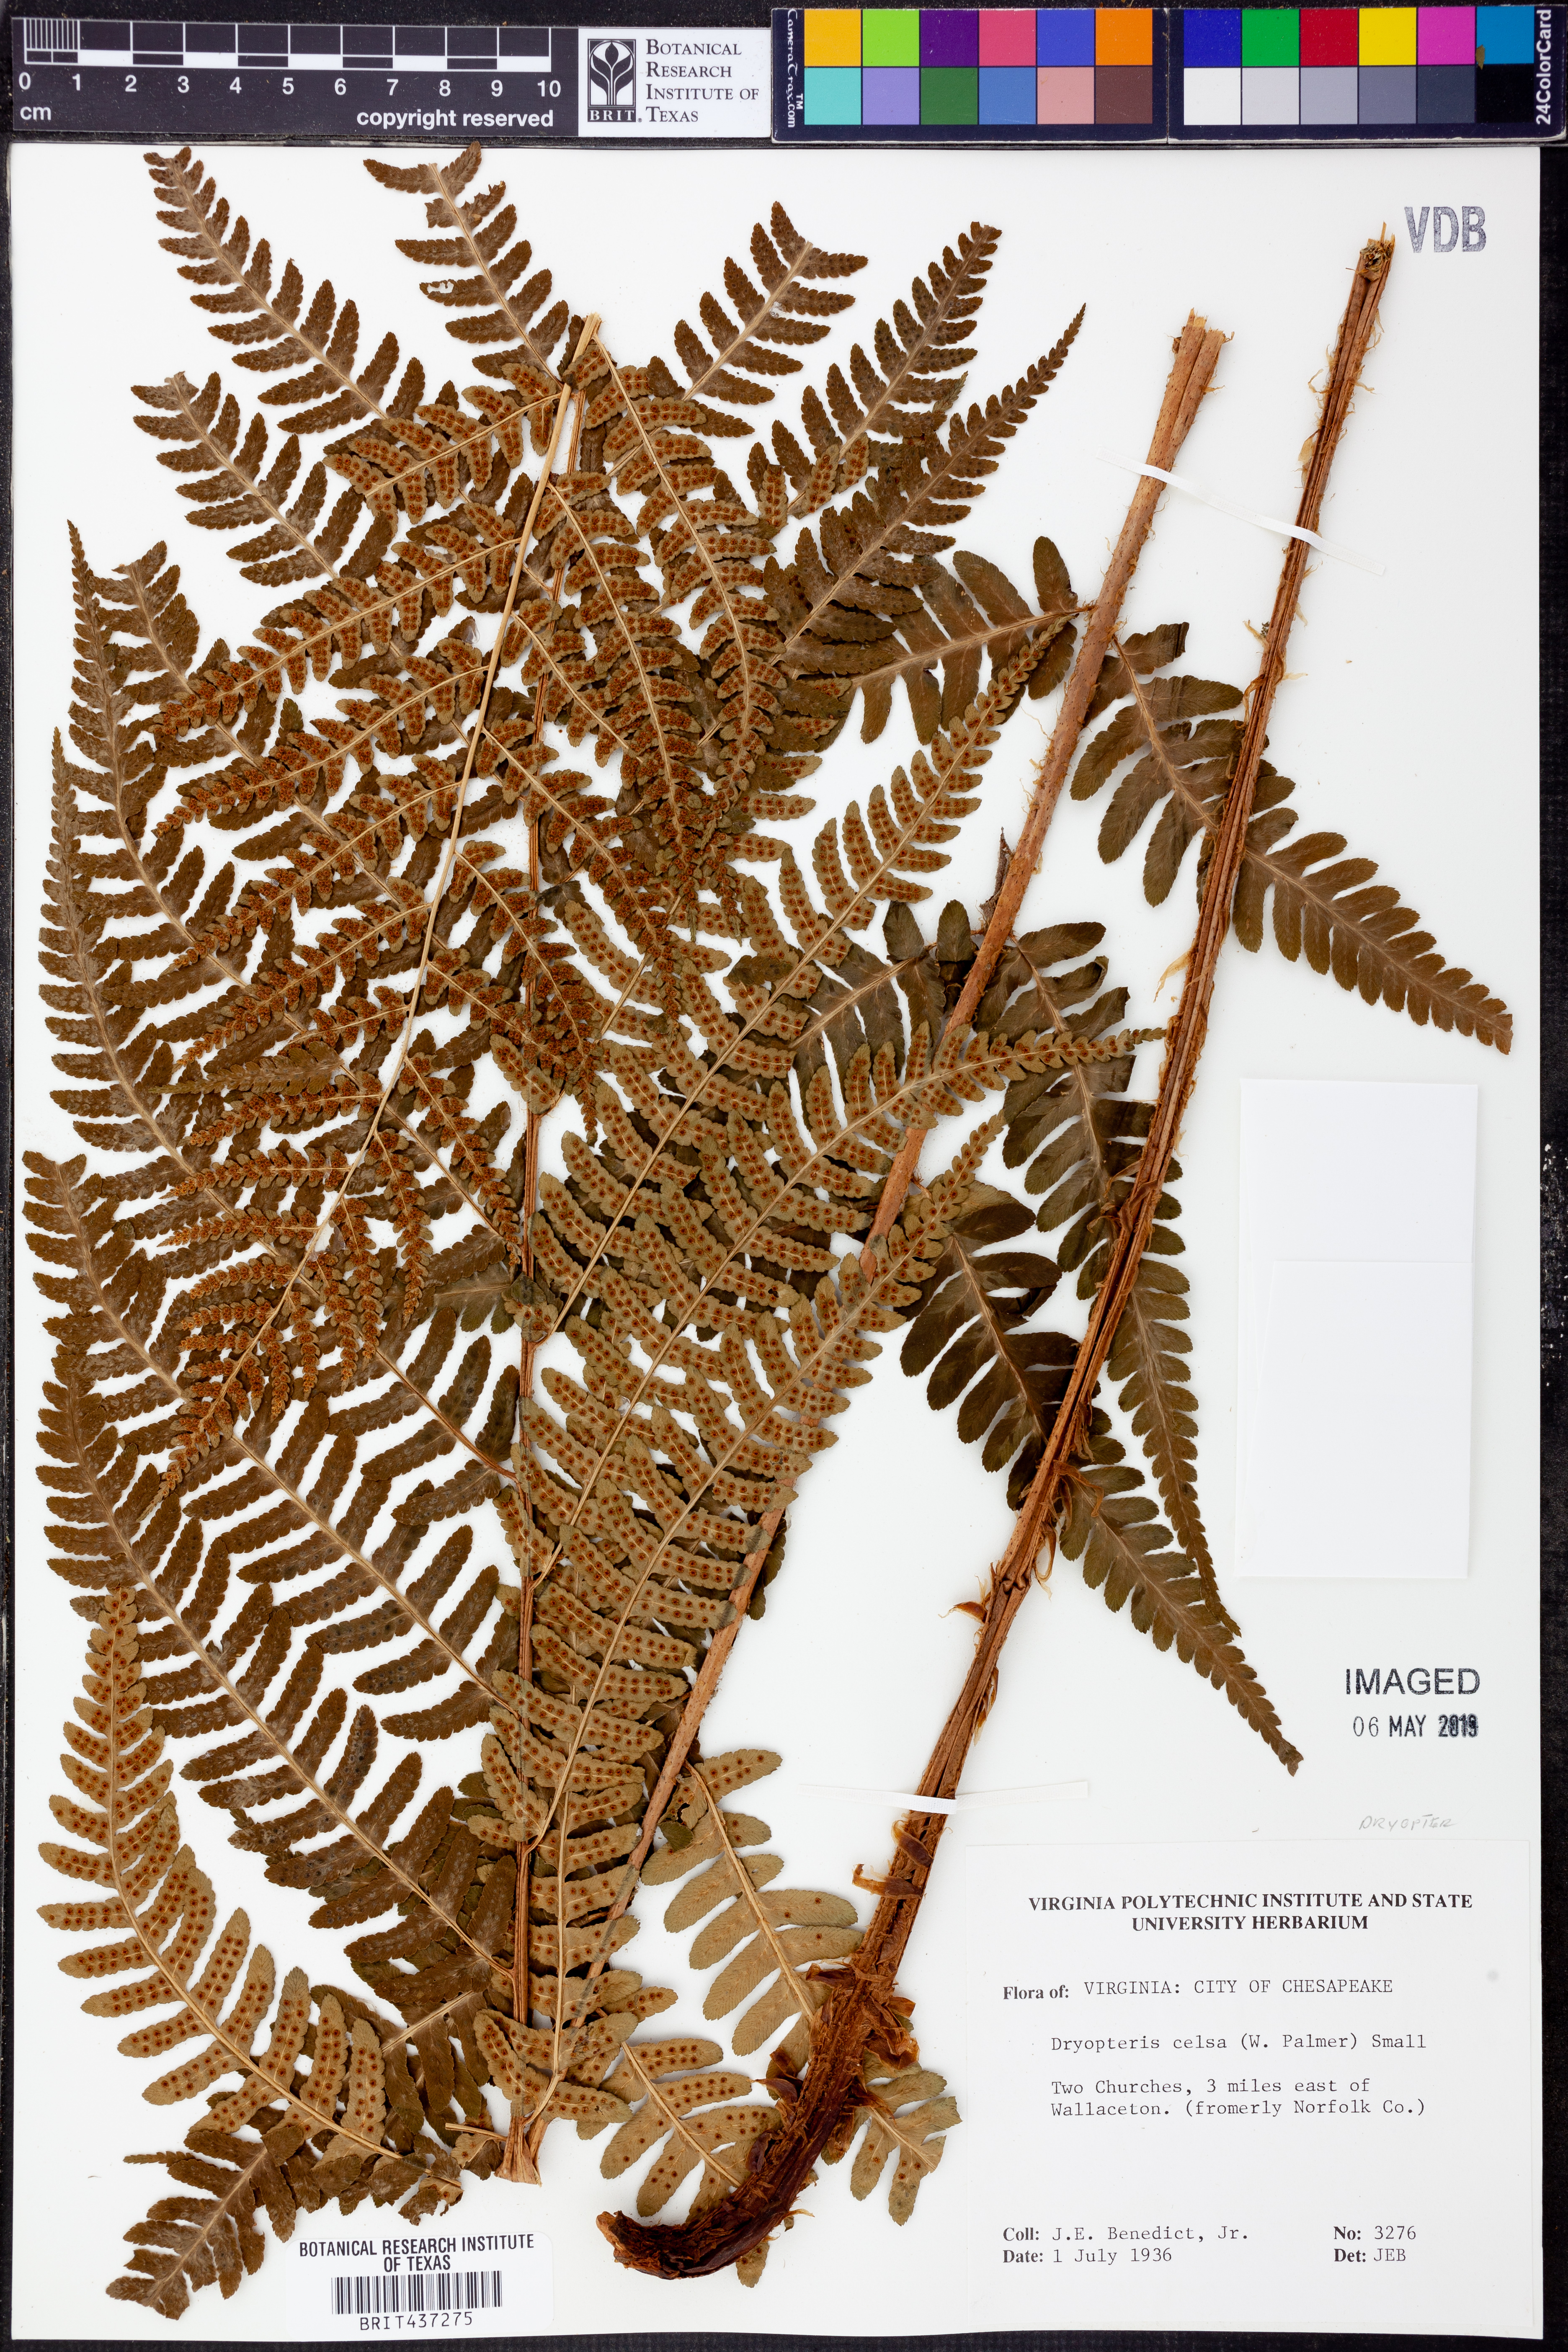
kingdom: Plantae
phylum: Tracheophyta
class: Polypodiopsida
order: Polypodiales
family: Dryopteridaceae
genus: Dryopteris
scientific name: Dryopteris celsa
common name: Log fern
